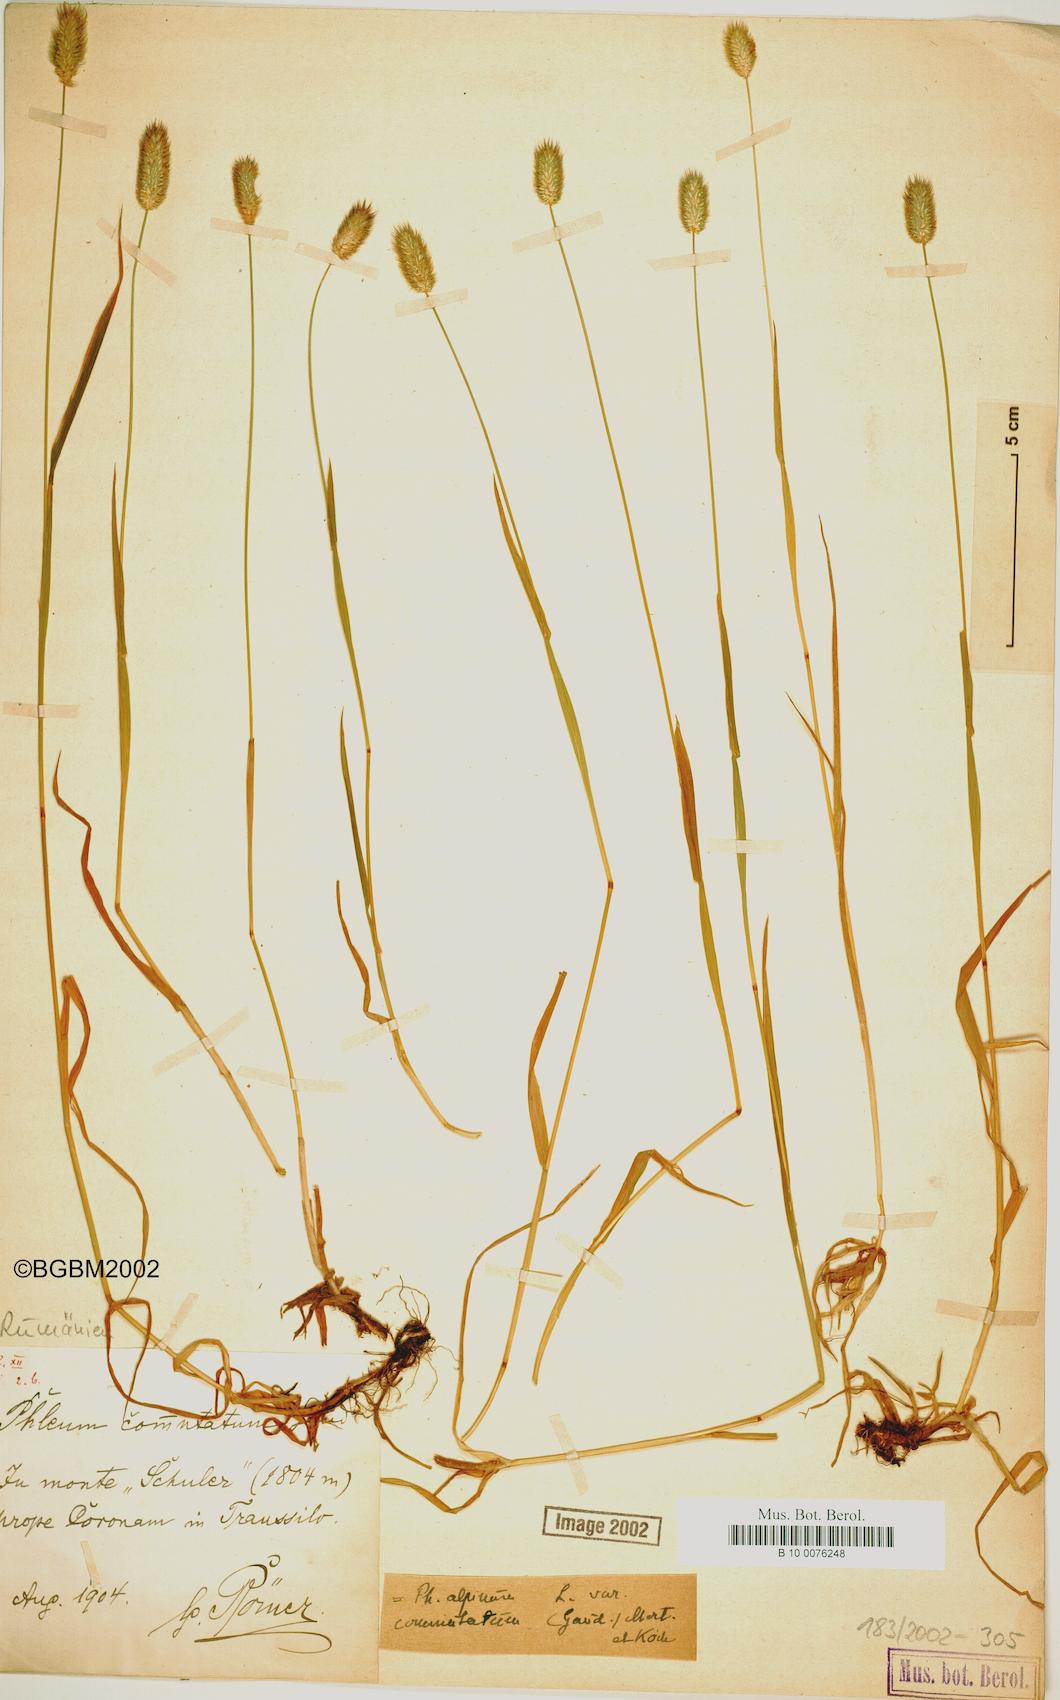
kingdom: Plantae
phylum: Tracheophyta
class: Liliopsida
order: Poales
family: Poaceae
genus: Phleum
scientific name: Phleum alpinum
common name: Alpine cat's-tail
